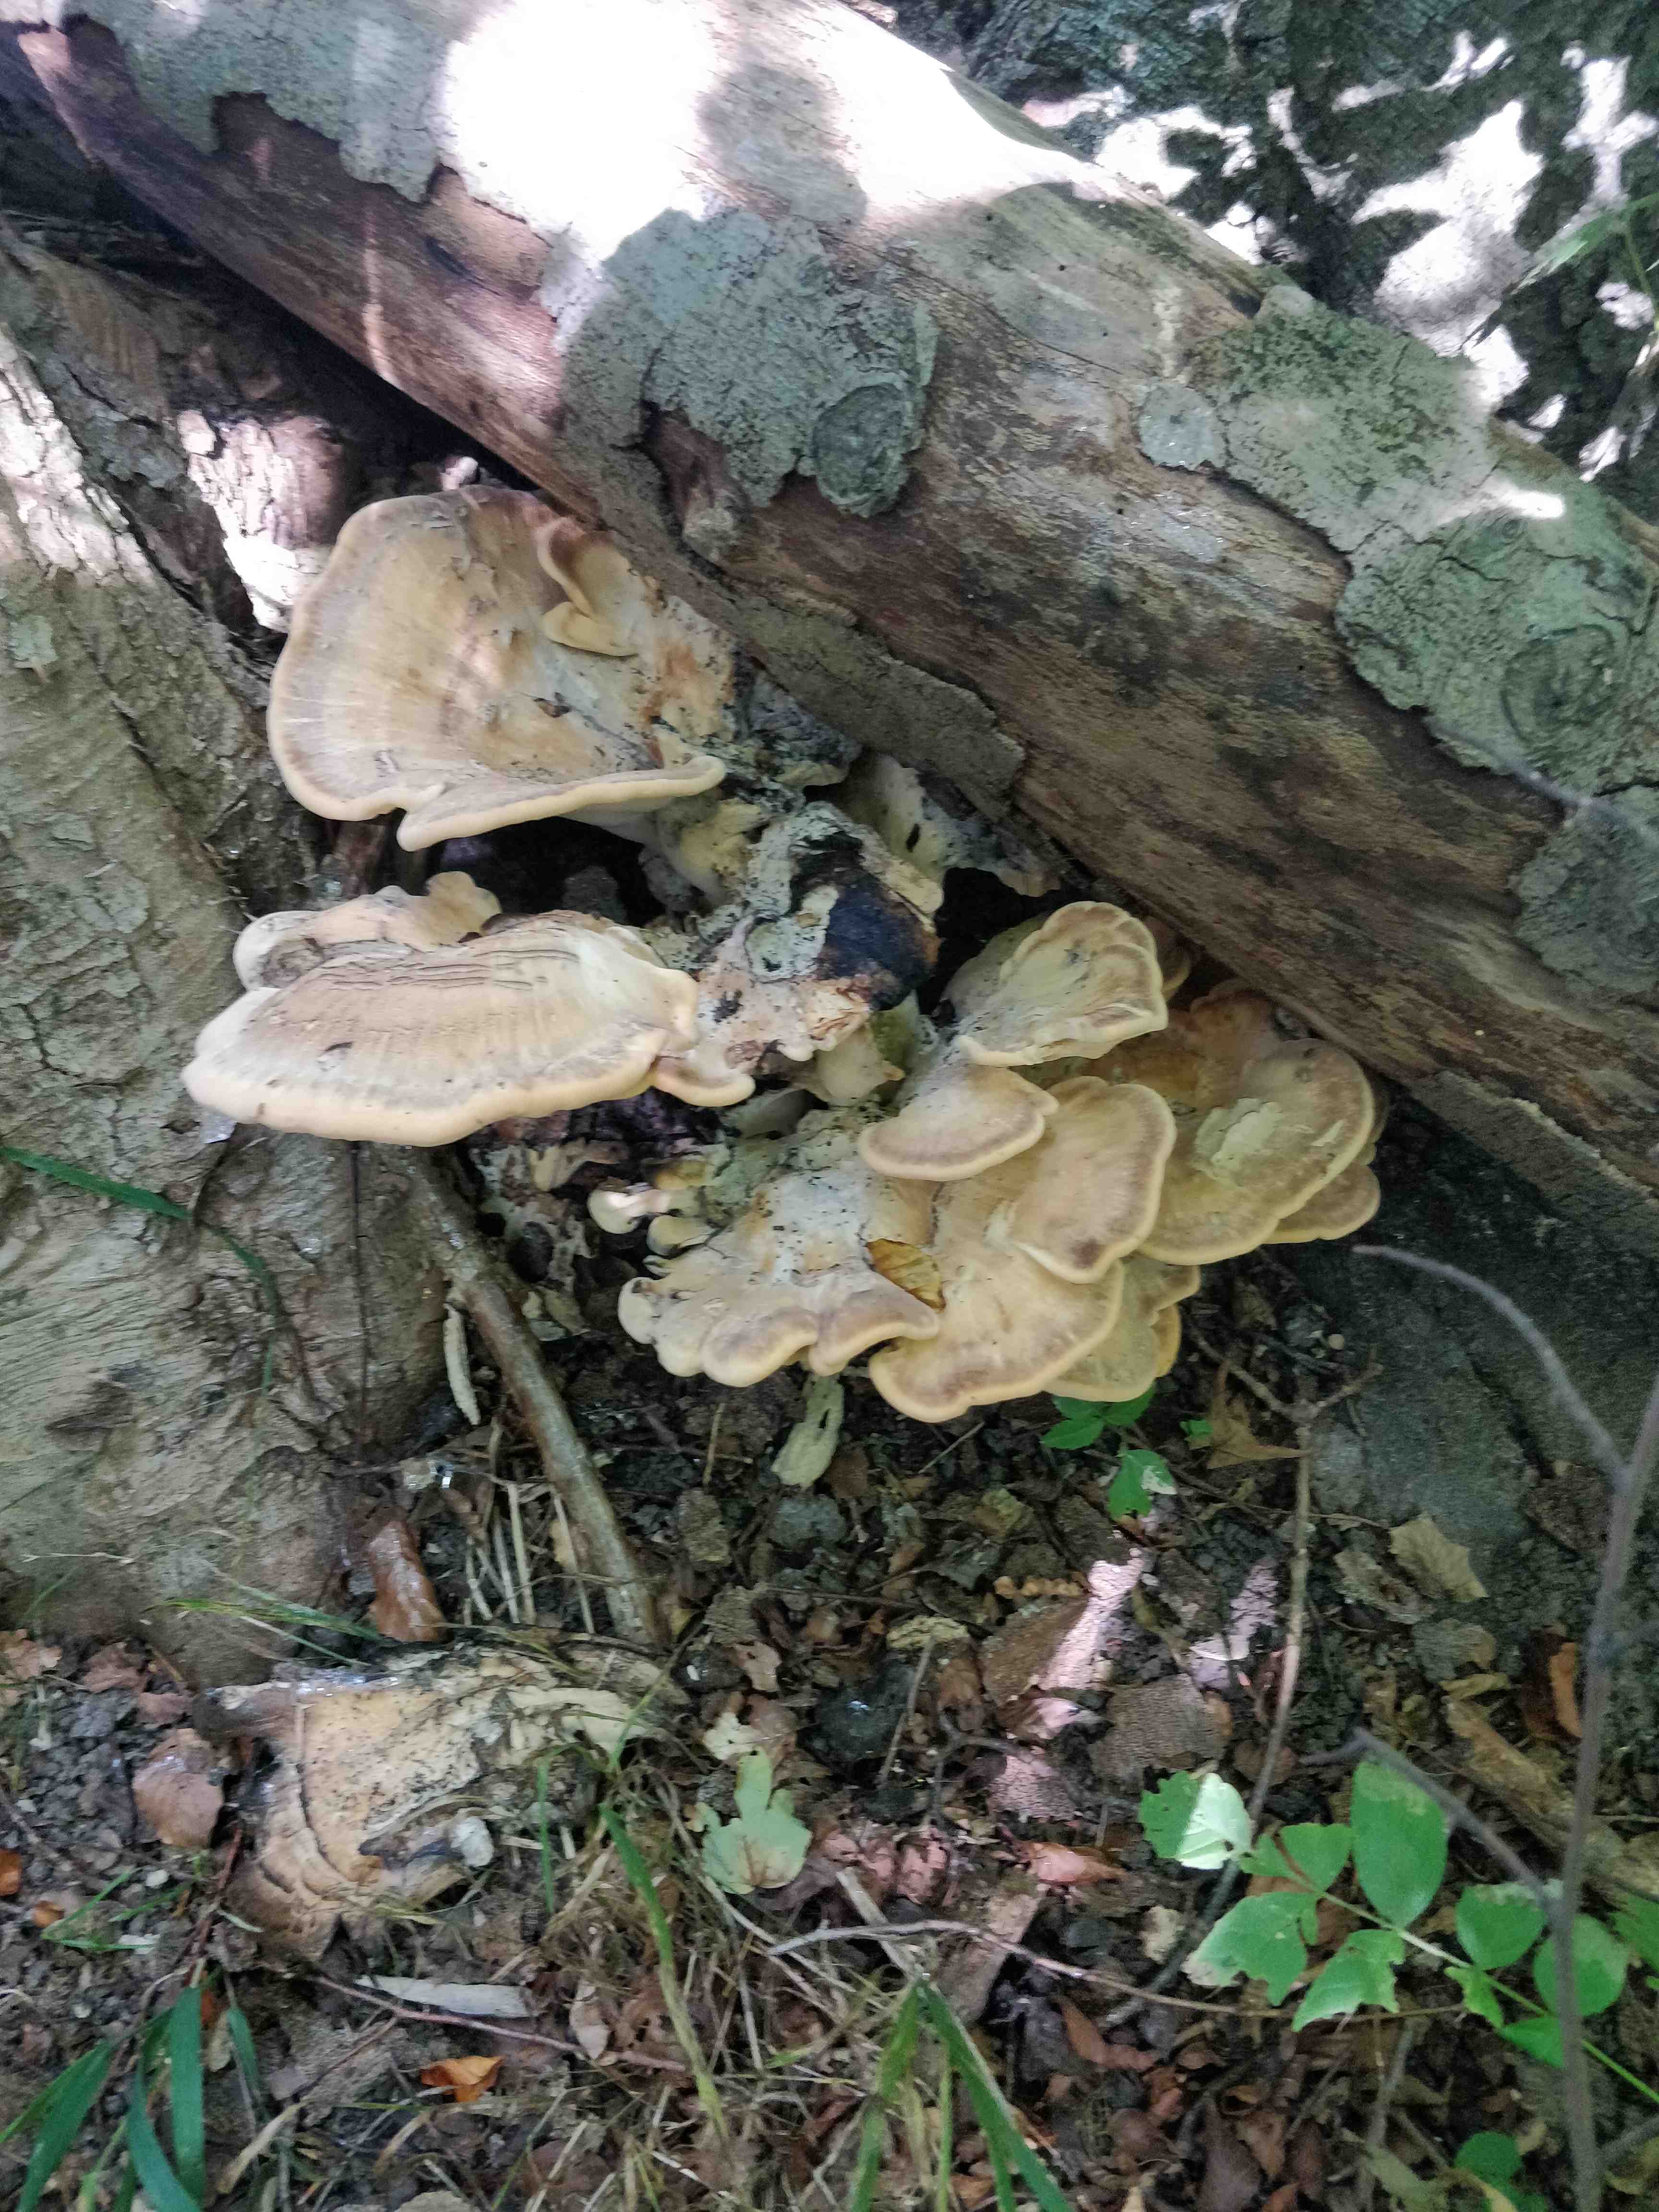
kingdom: Fungi
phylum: Basidiomycota
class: Agaricomycetes
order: Polyporales
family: Meripilaceae
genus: Meripilus
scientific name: Meripilus giganteus
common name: kæmpeporesvamp
